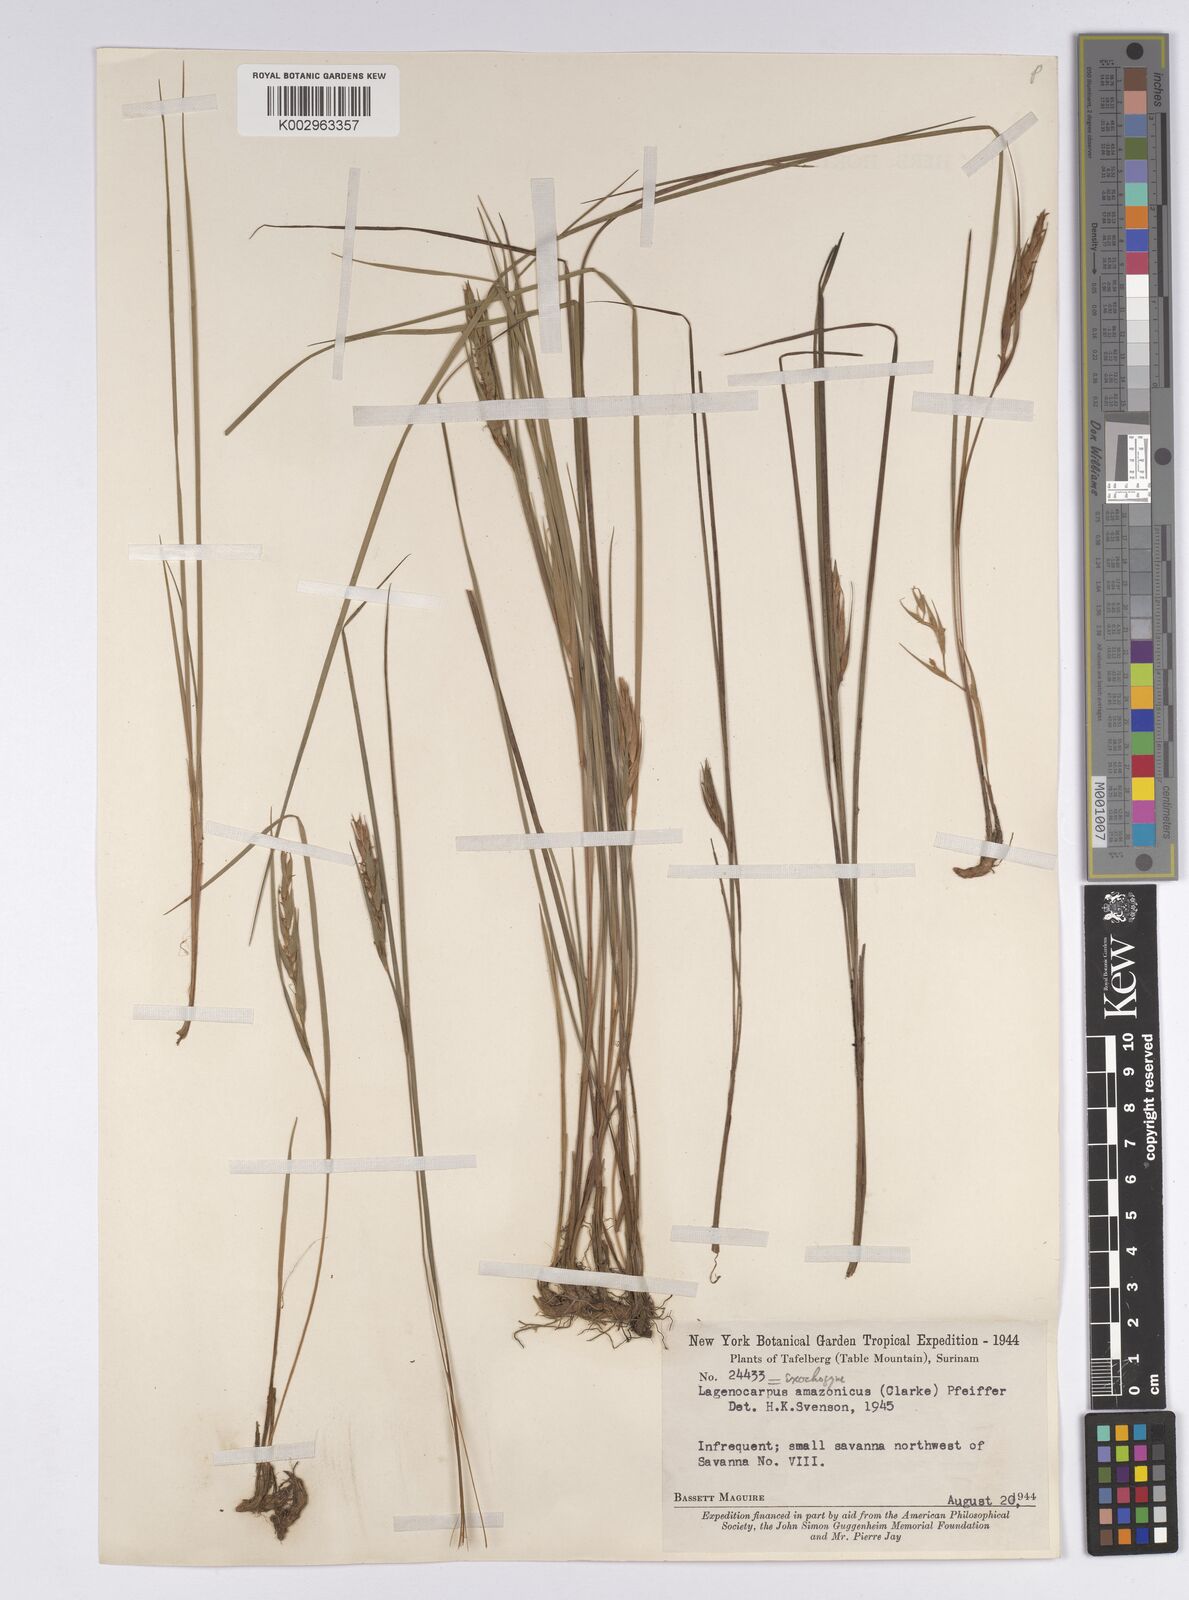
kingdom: Plantae
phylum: Tracheophyta
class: Liliopsida
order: Poales
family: Cyperaceae
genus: Exochogyne
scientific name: Exochogyne amazonica
